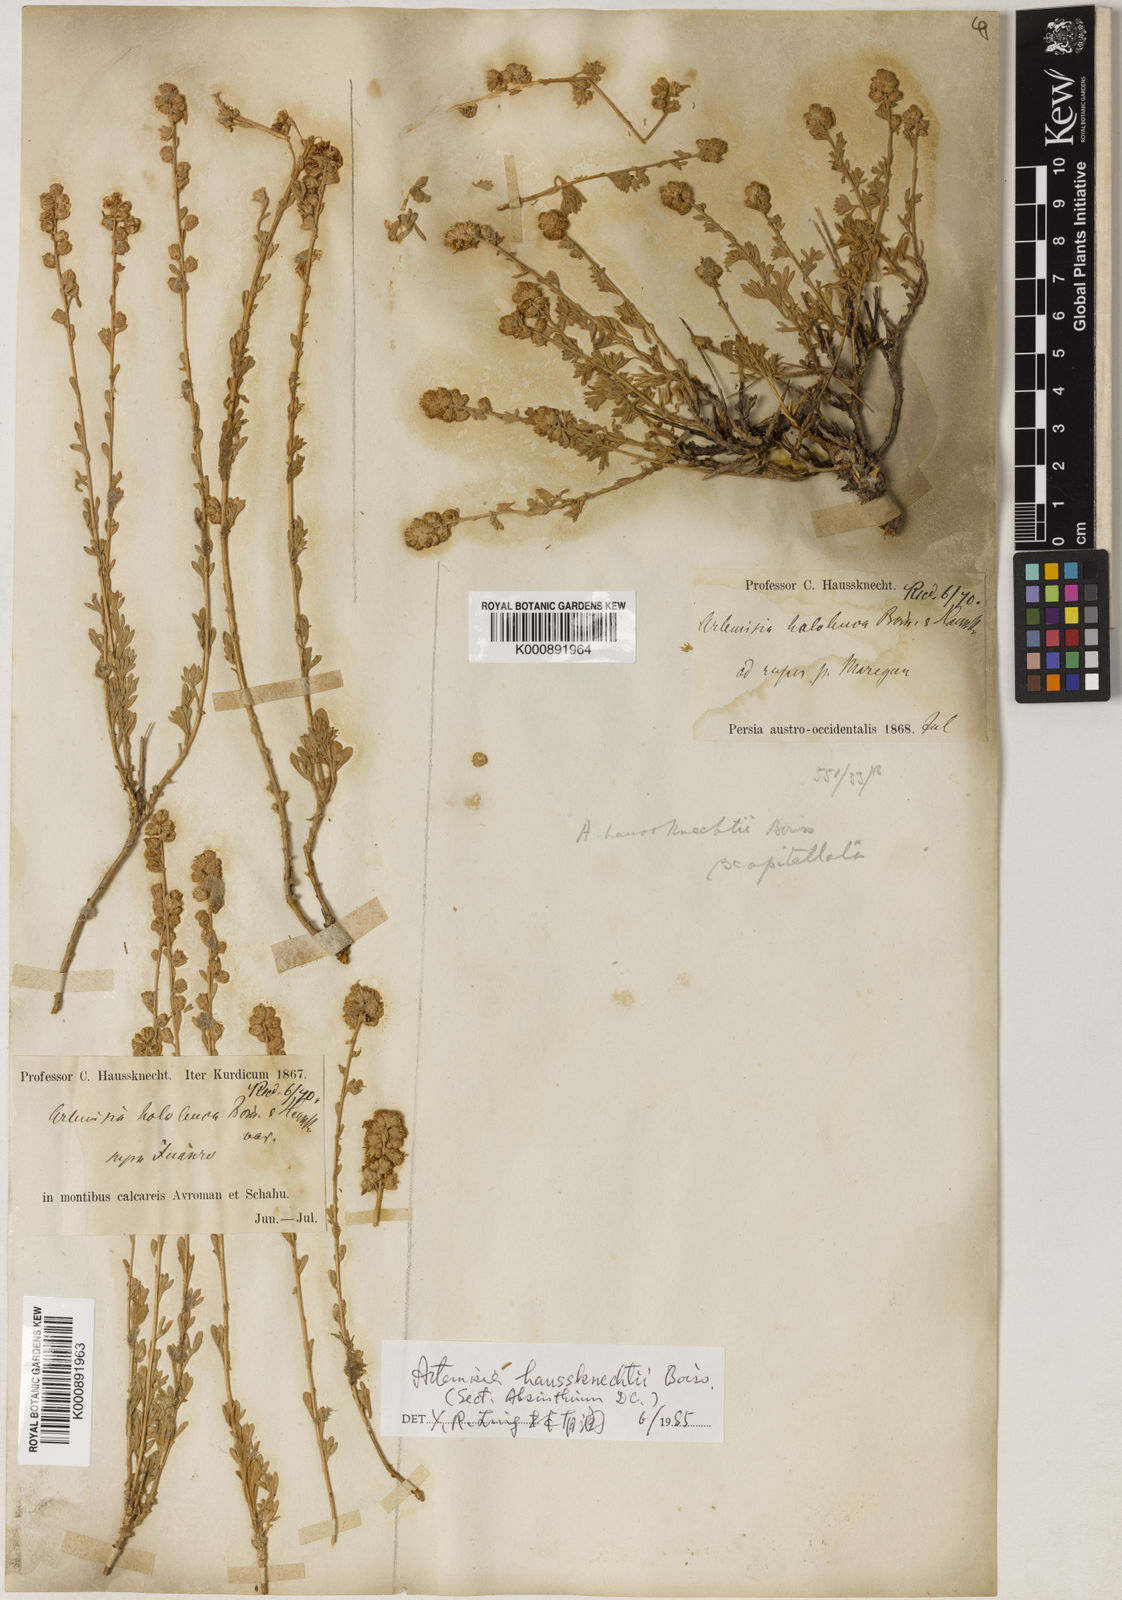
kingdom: Plantae
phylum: Tracheophyta
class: Magnoliopsida
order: Asterales
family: Asteraceae
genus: Artemisia
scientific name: Artemisia
